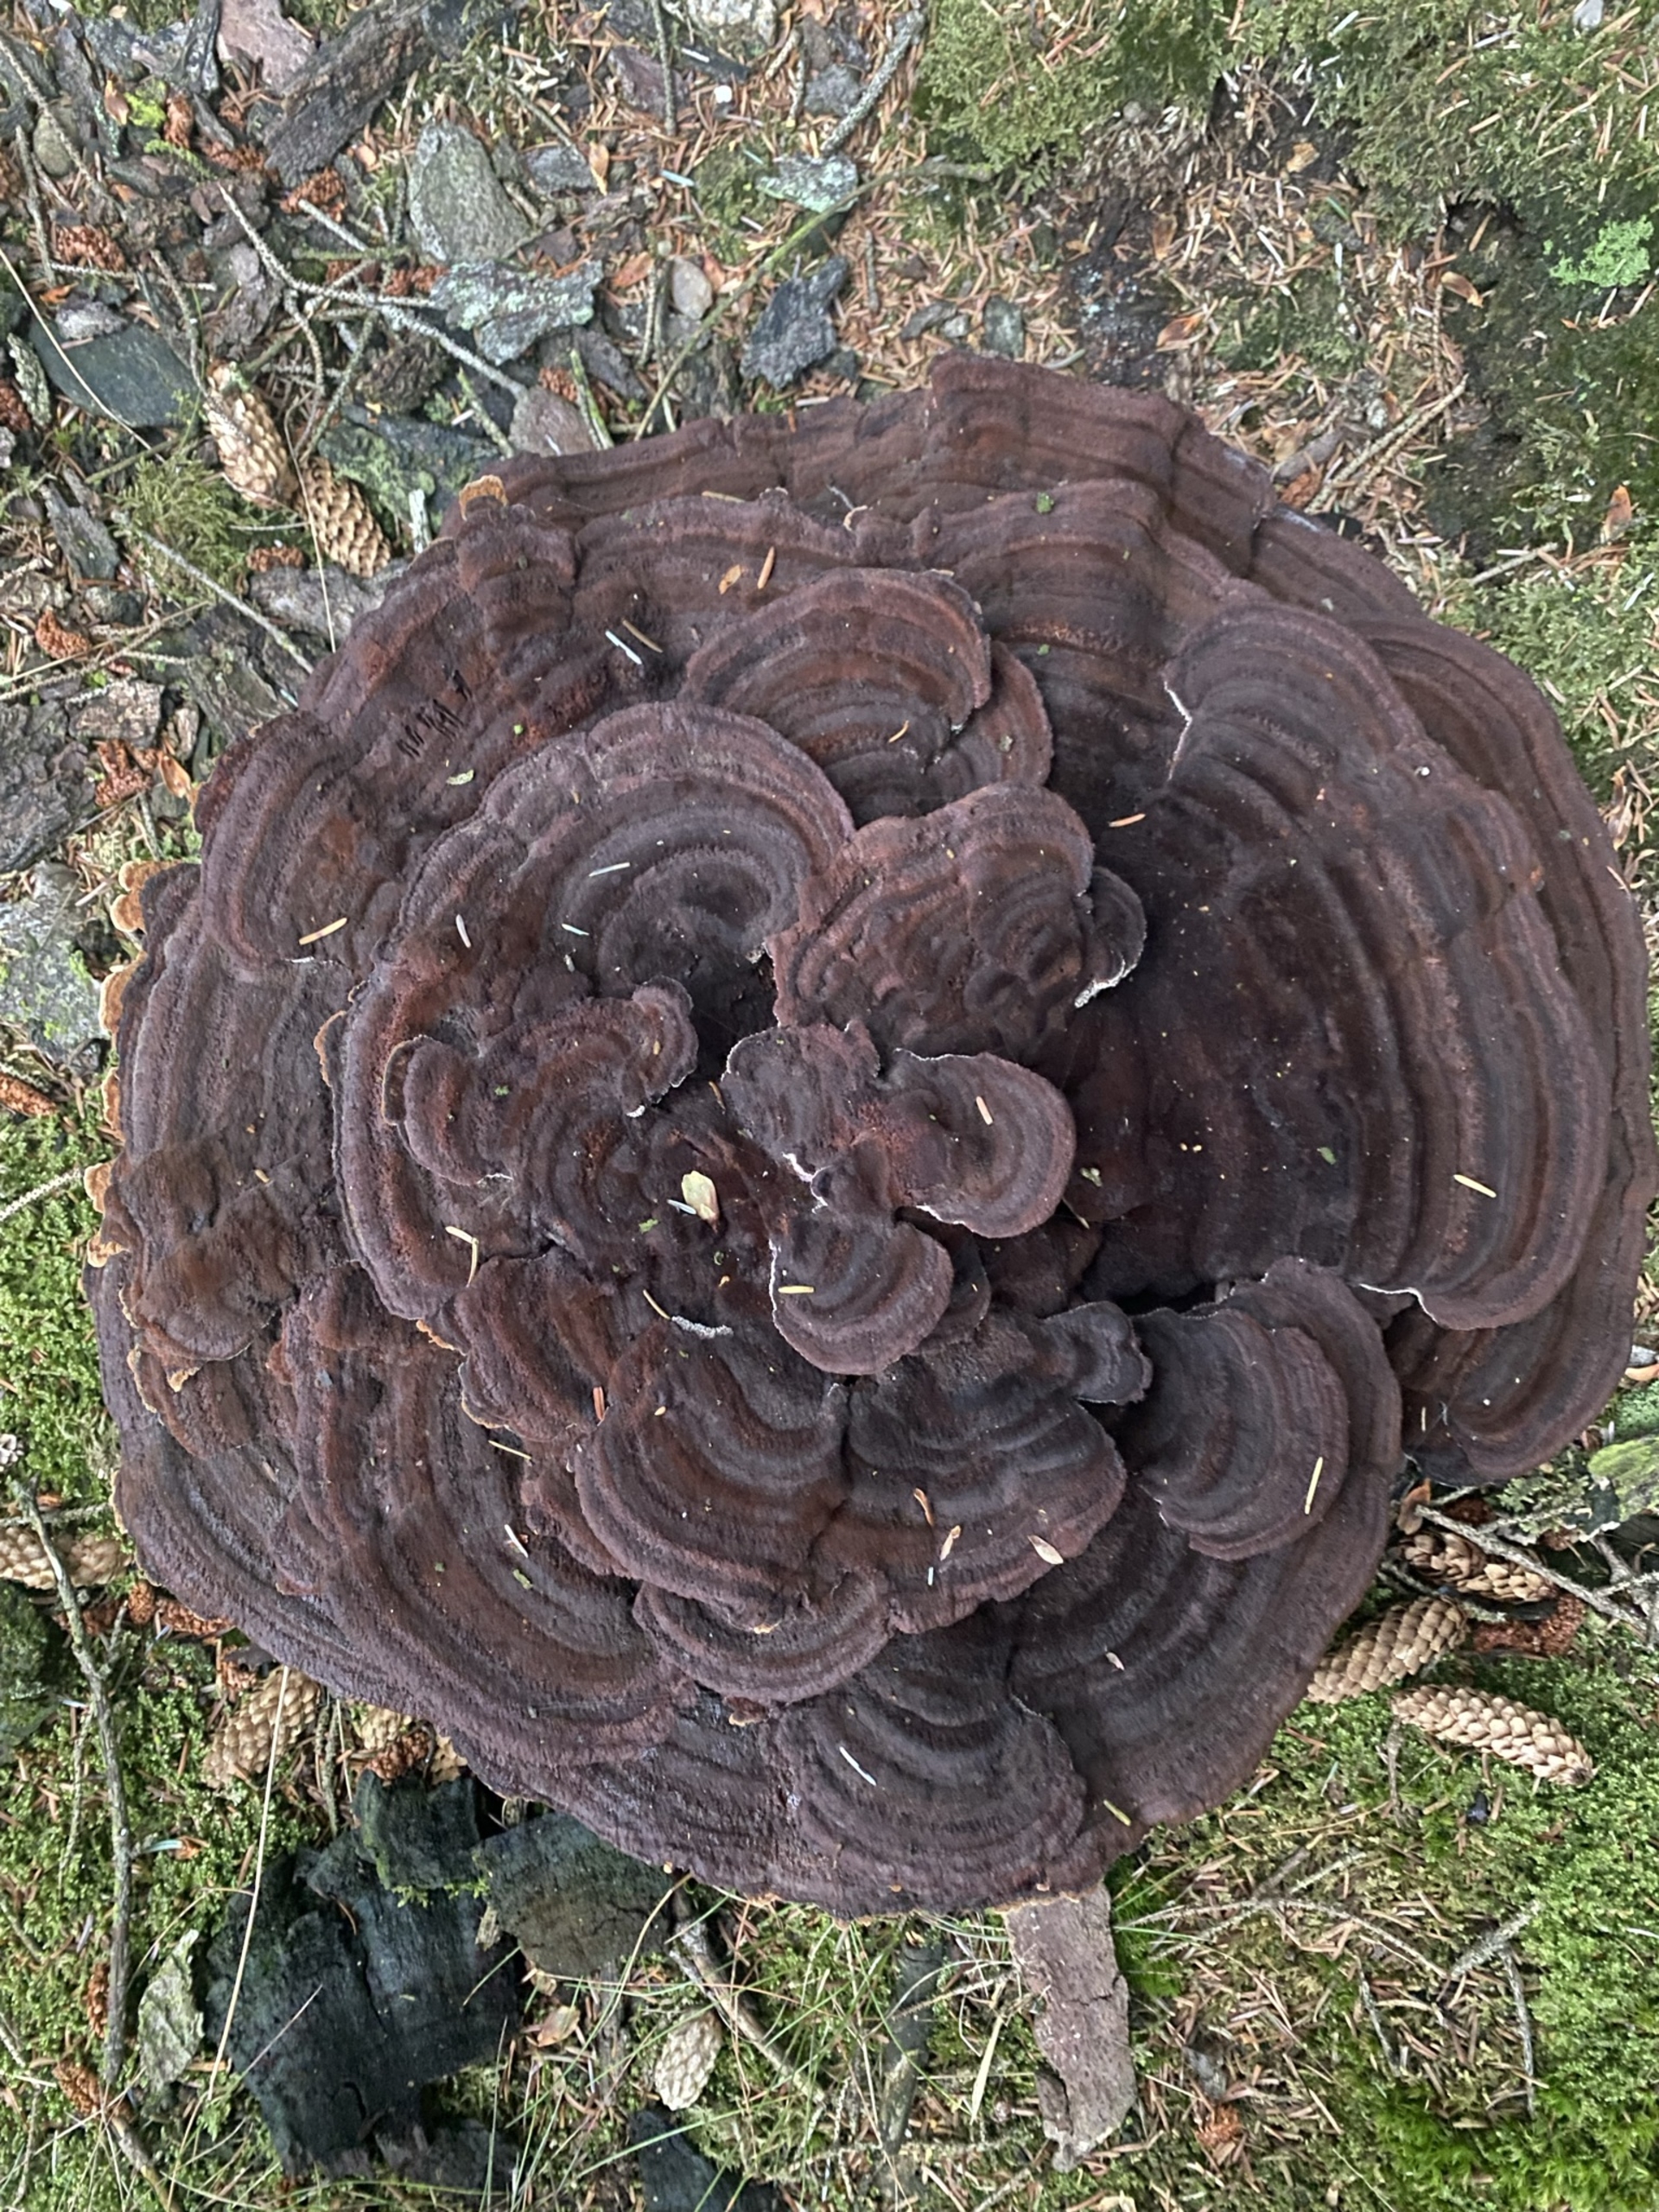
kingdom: Fungi
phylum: Basidiomycota
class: Agaricomycetes
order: Polyporales
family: Laetiporaceae
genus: Phaeolus
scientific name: Phaeolus schweinitzii
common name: Brunporesvamp
